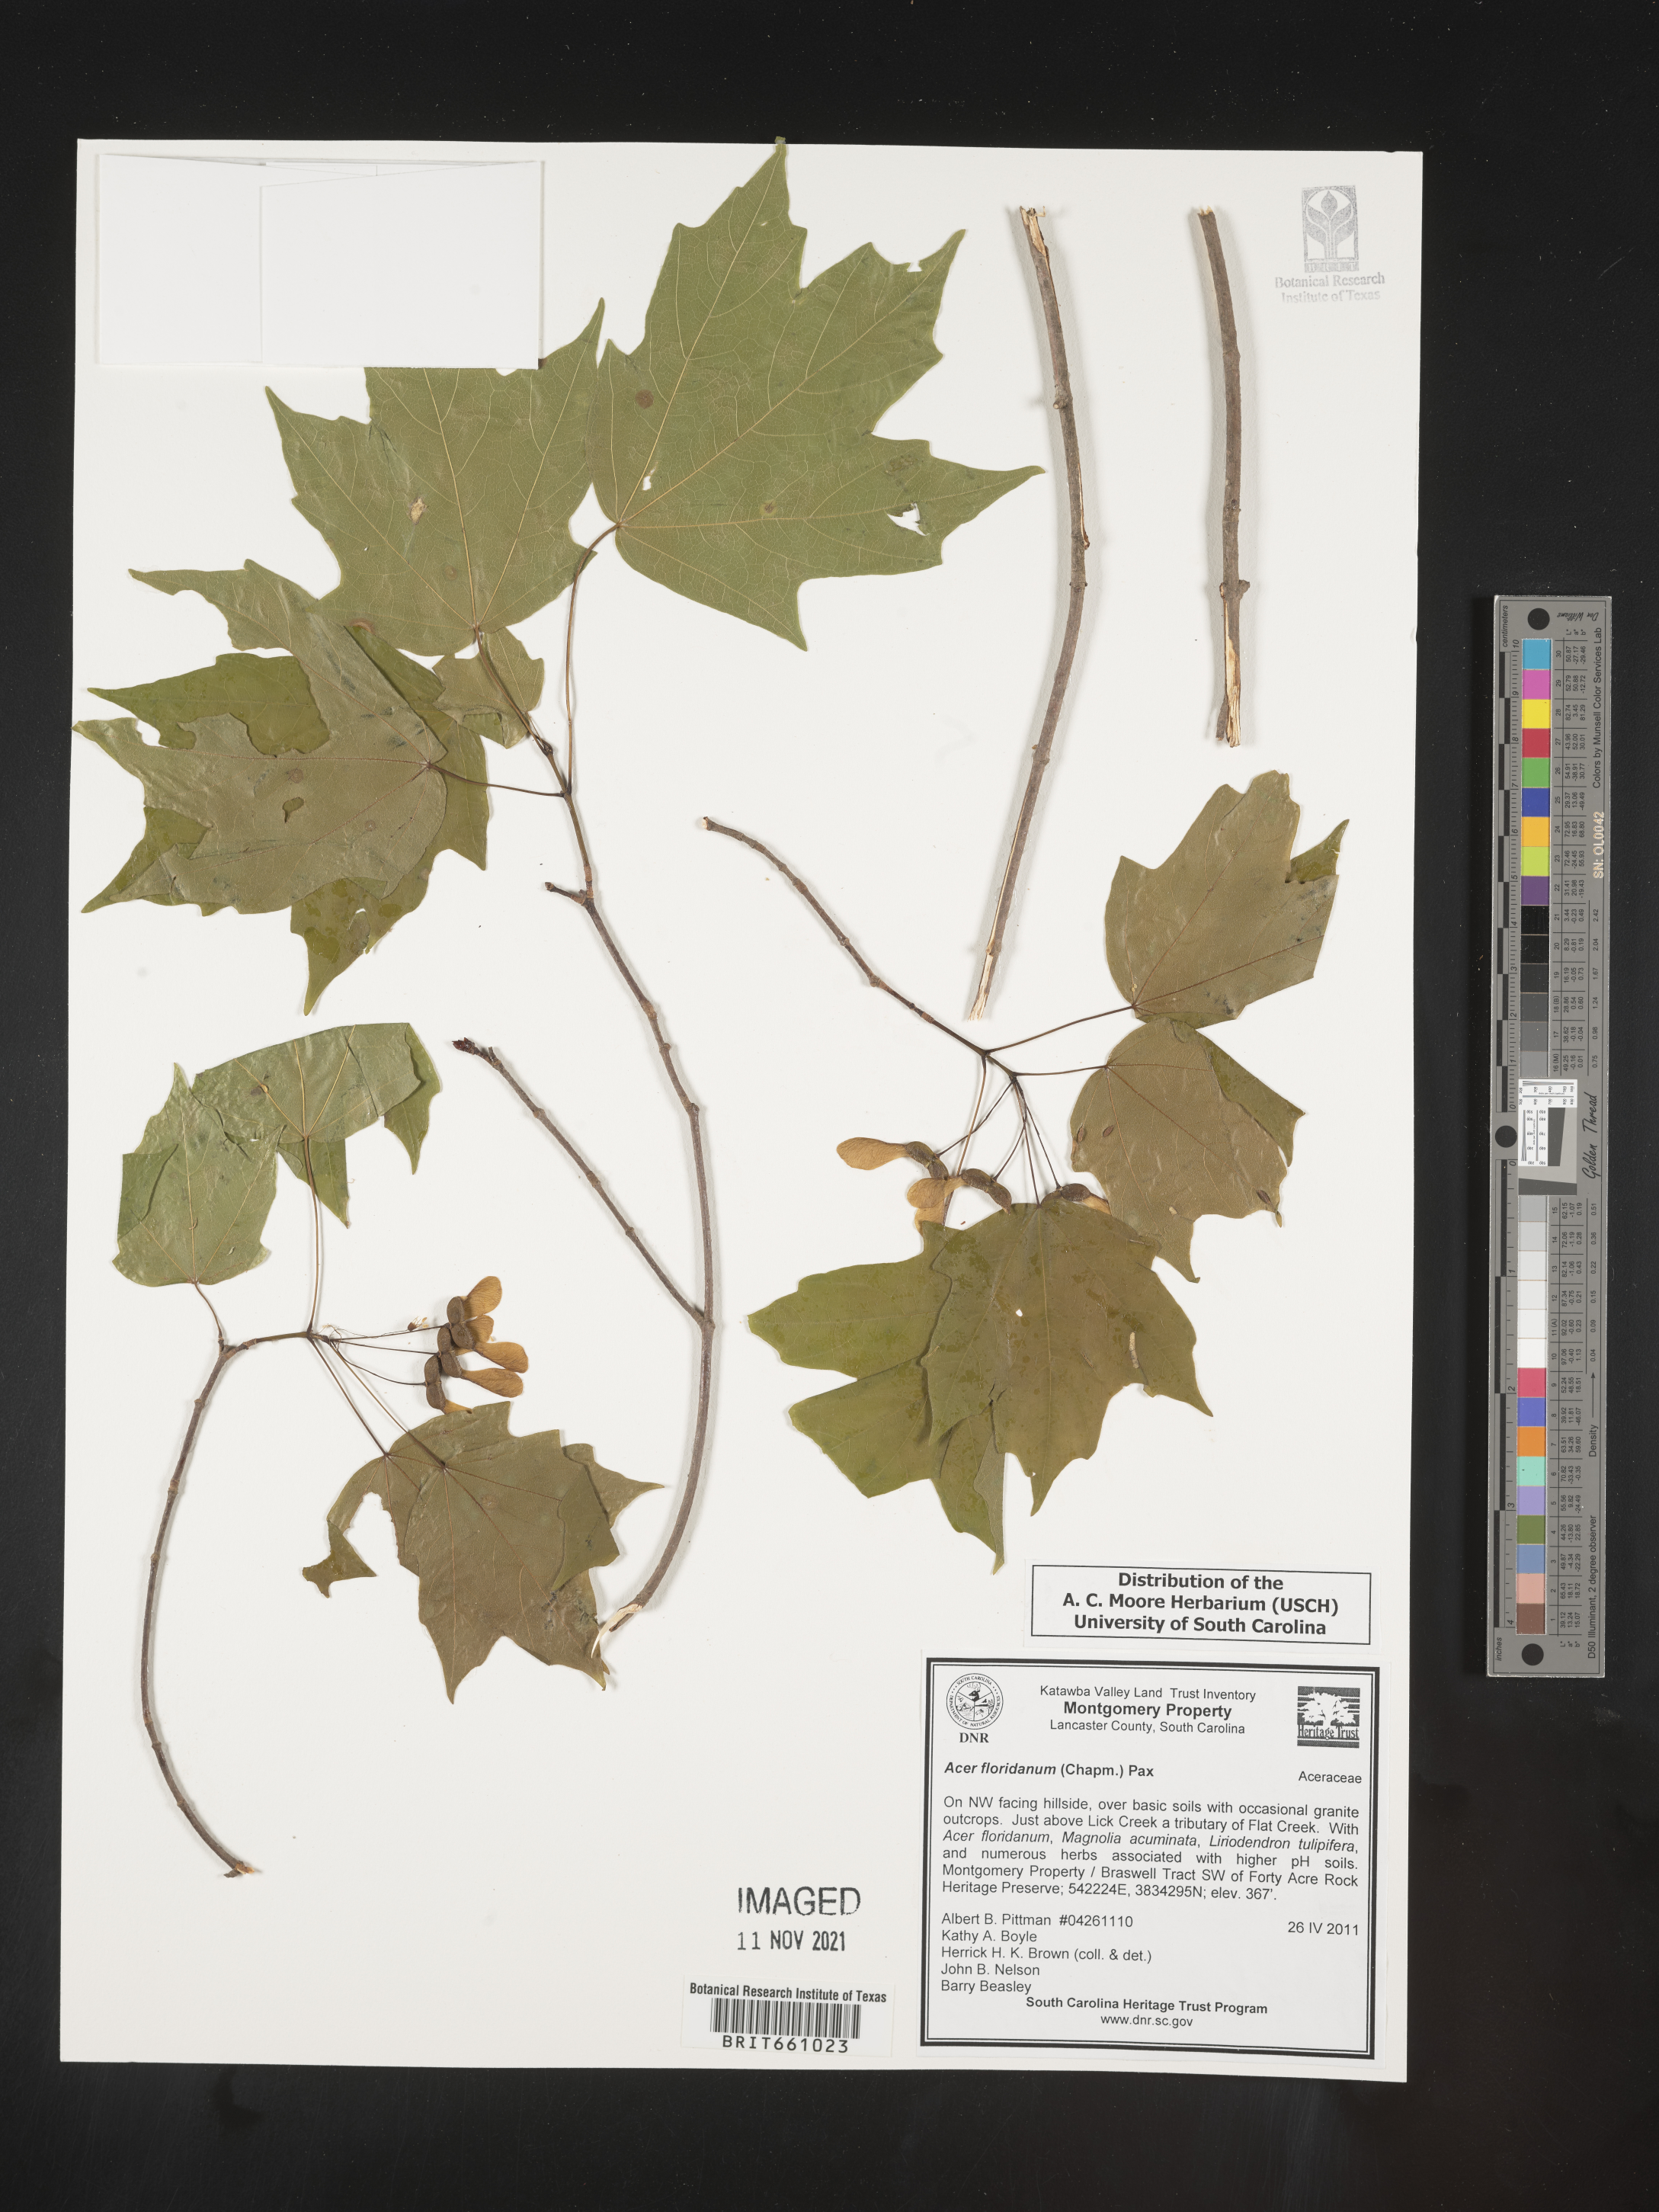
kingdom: Plantae
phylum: Tracheophyta
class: Magnoliopsida
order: Sapindales
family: Sapindaceae
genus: Acer
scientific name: Acer
